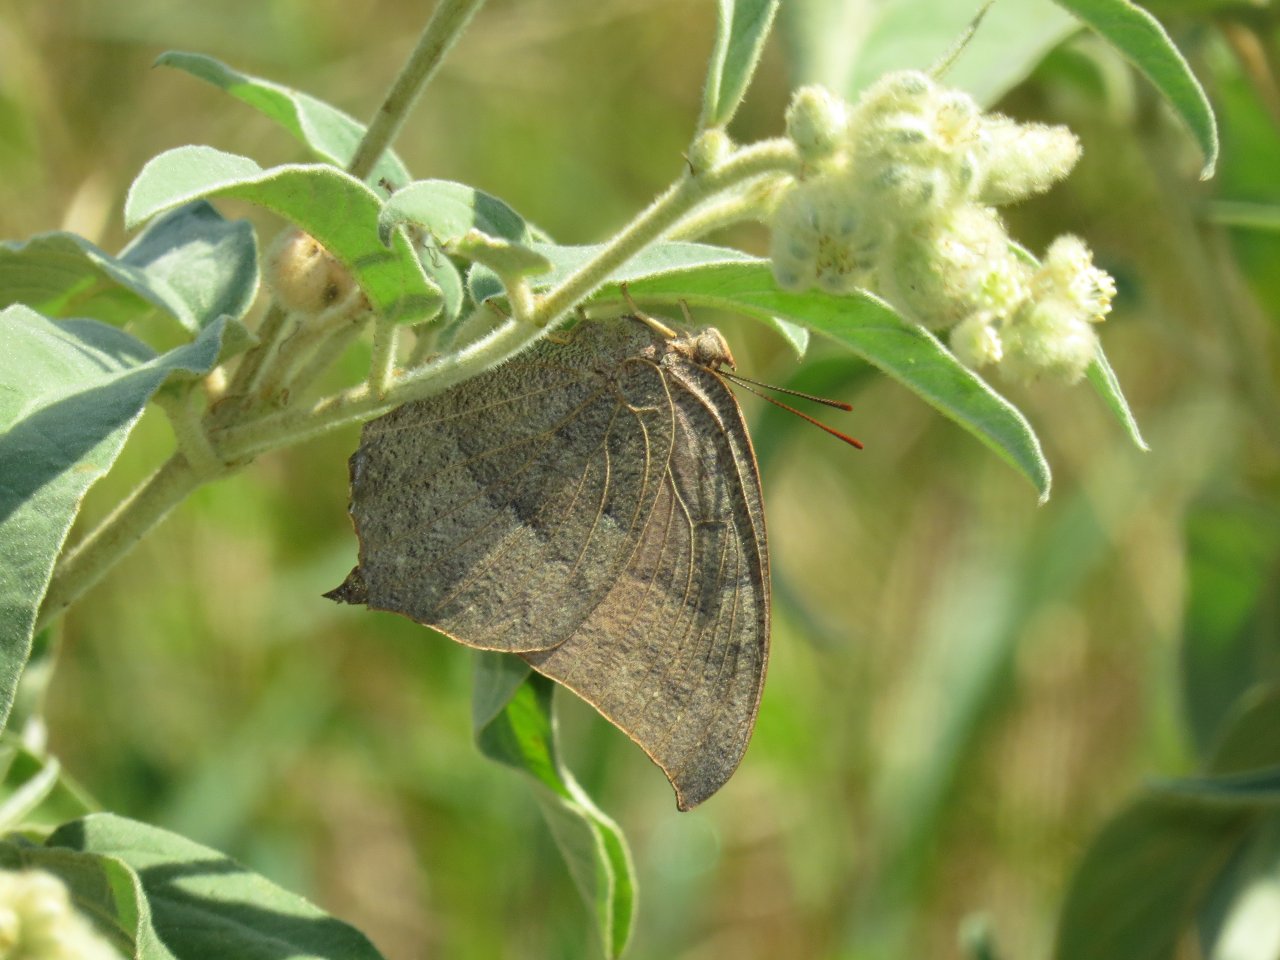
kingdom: Animalia
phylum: Arthropoda
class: Insecta
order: Lepidoptera
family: Nymphalidae
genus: Anaea
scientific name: Anaea andria
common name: Goatweed Leafwing
